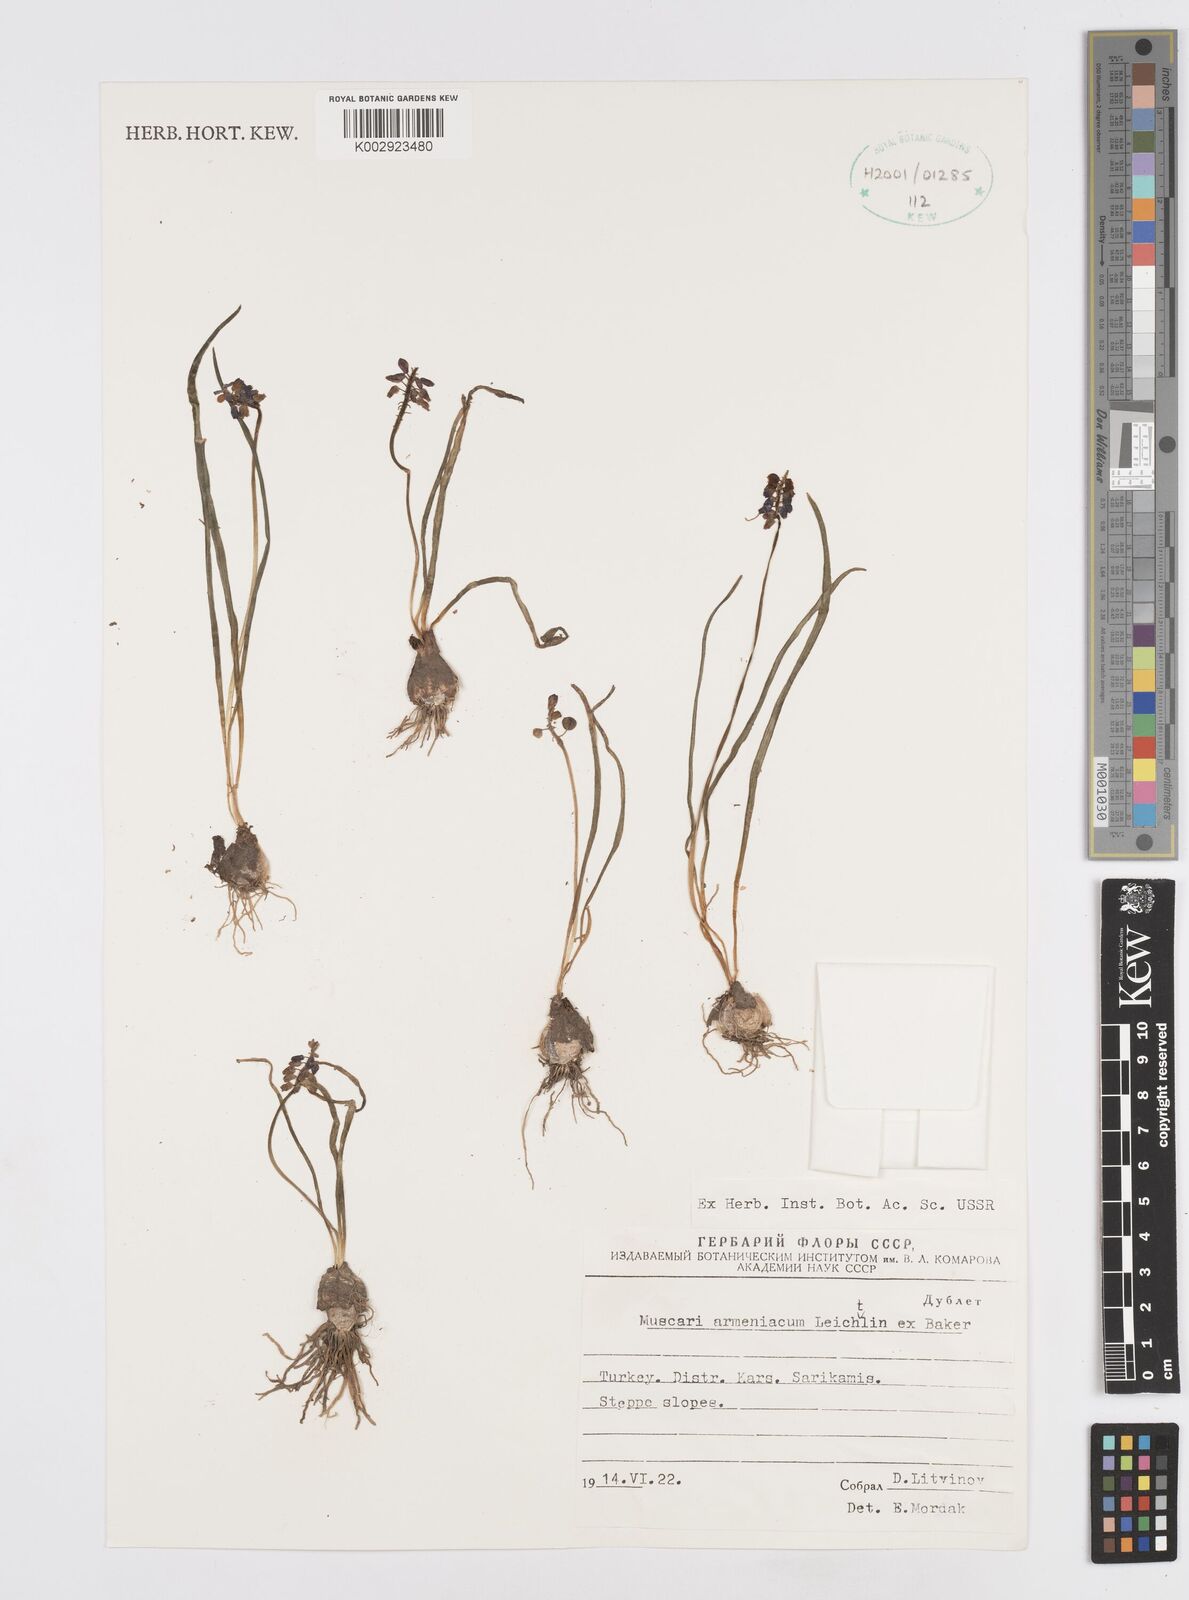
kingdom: Plantae
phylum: Tracheophyta
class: Liliopsida
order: Asparagales
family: Asparagaceae
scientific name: Asparagaceae
